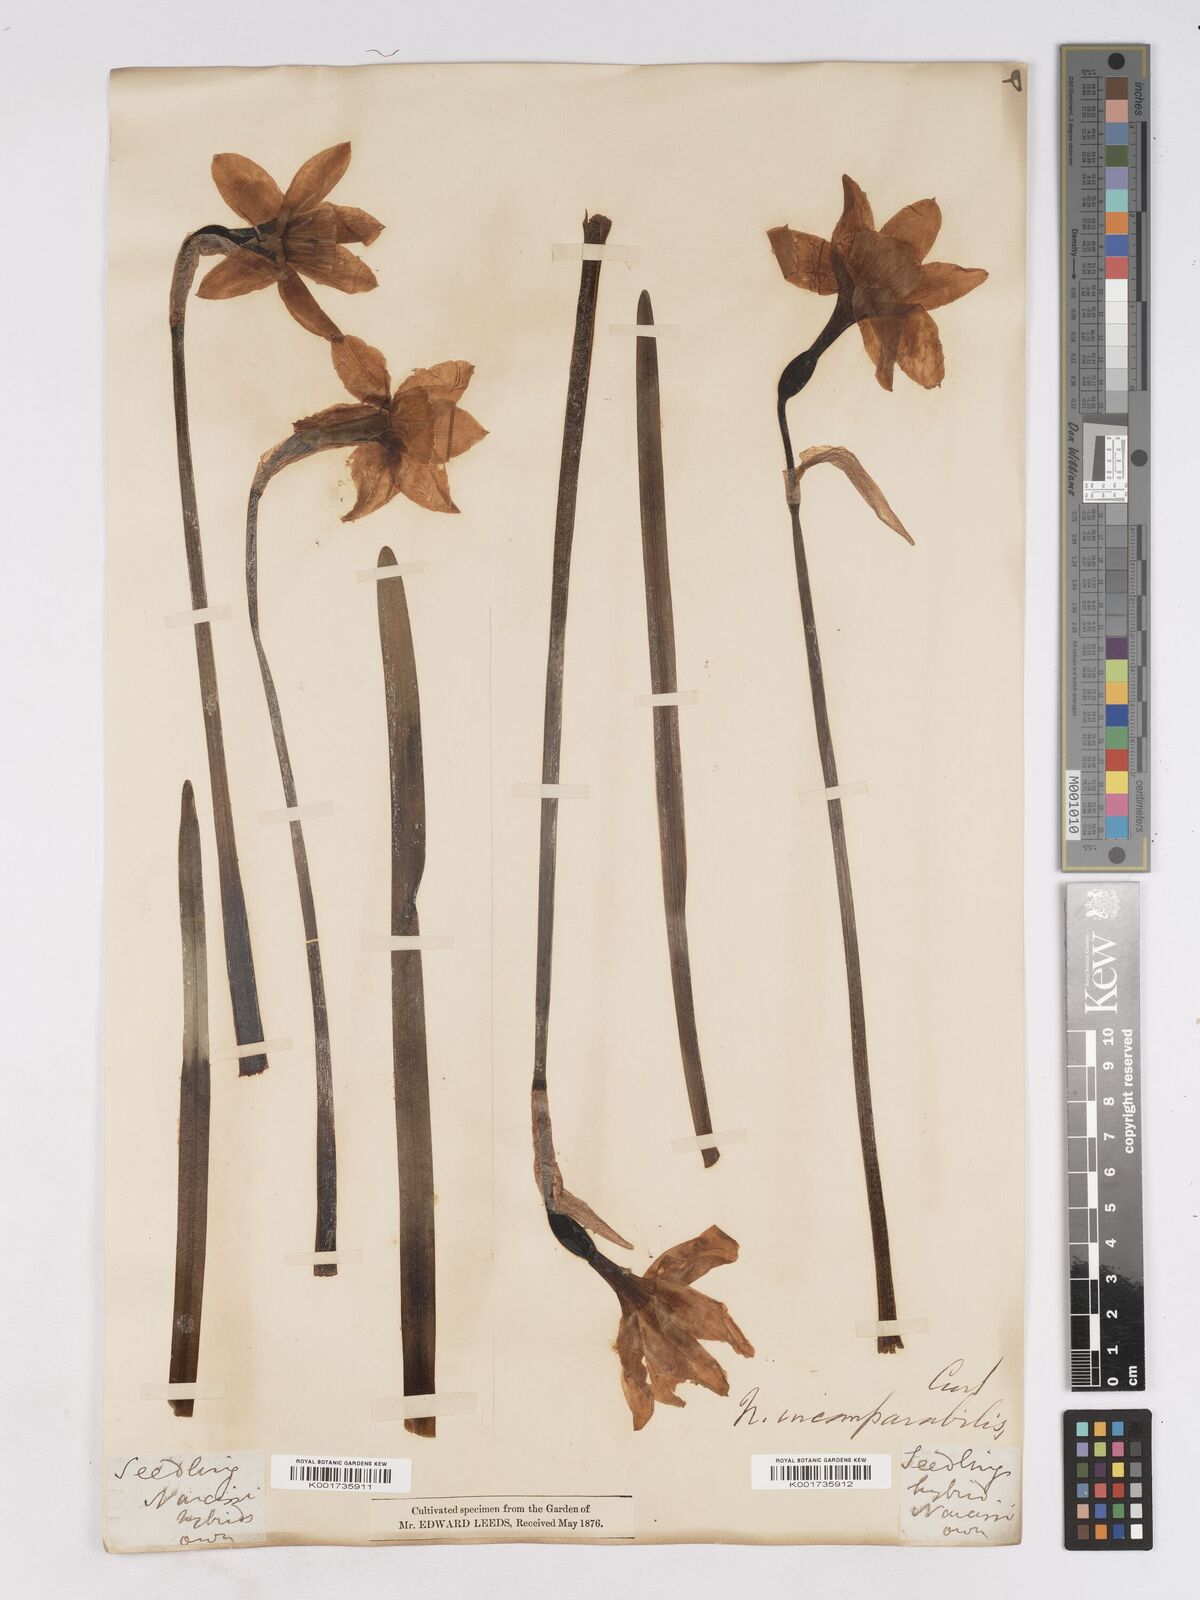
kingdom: Plantae
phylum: Tracheophyta
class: Liliopsida
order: Asparagales
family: Amaryllidaceae
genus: Narcissus
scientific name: Narcissus incomparabilis
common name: Nonesuch daffodil
